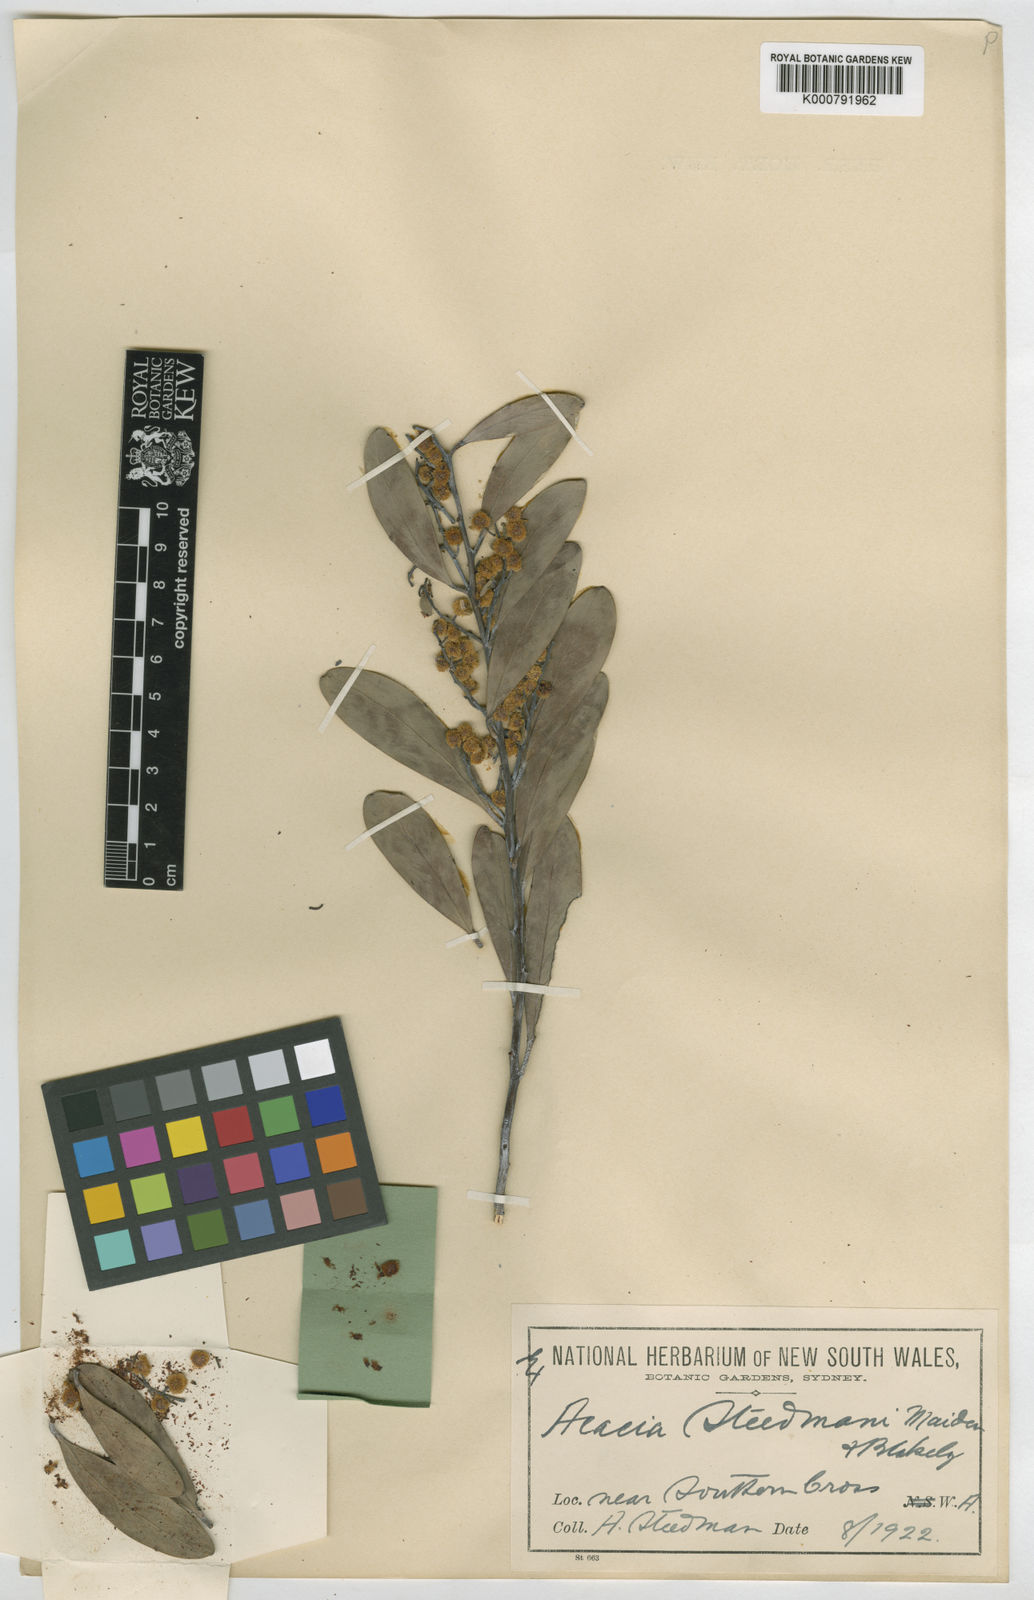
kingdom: Plantae
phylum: Tracheophyta
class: Magnoliopsida
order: Fabales
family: Fabaceae
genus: Acacia
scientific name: Acacia steedmanii
